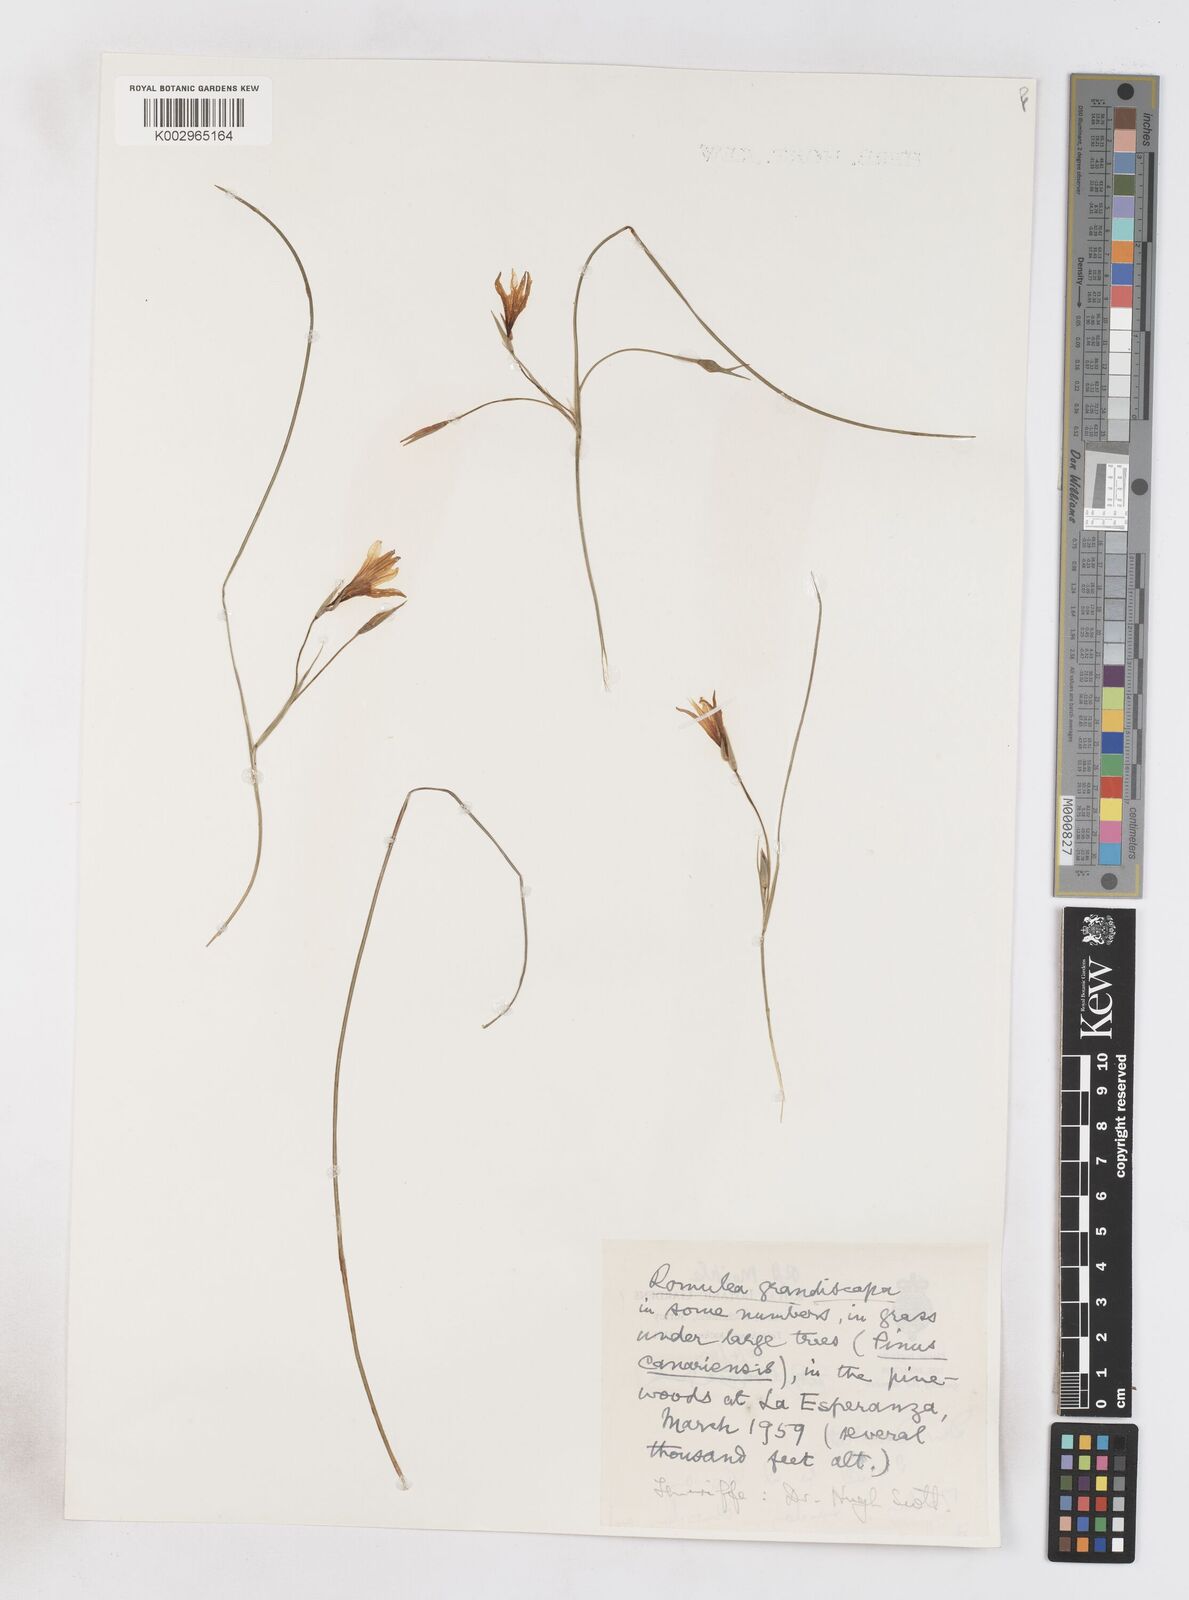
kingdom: Plantae
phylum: Tracheophyta
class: Liliopsida
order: Asparagales
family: Iridaceae
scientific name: Iridaceae
